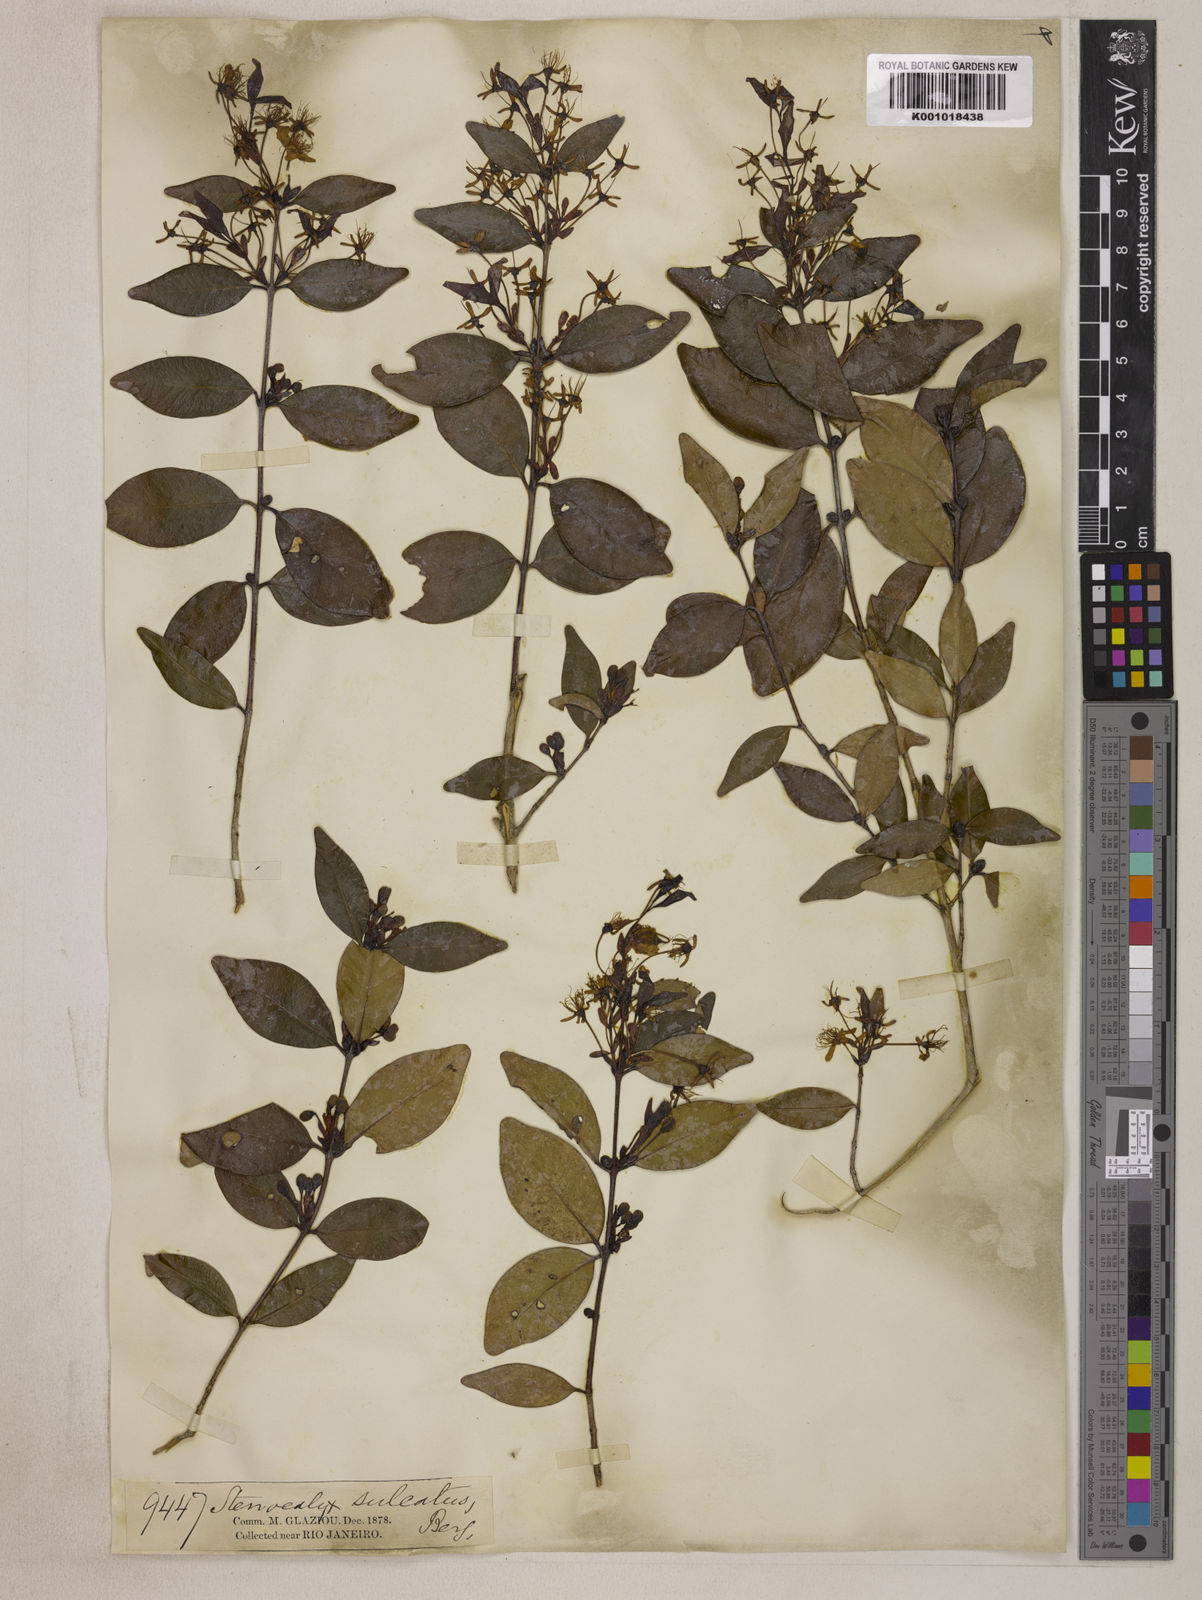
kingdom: Plantae
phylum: Tracheophyta
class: Magnoliopsida
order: Myrtales
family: Myrtaceae
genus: Eugenia
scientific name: Eugenia sulcata
